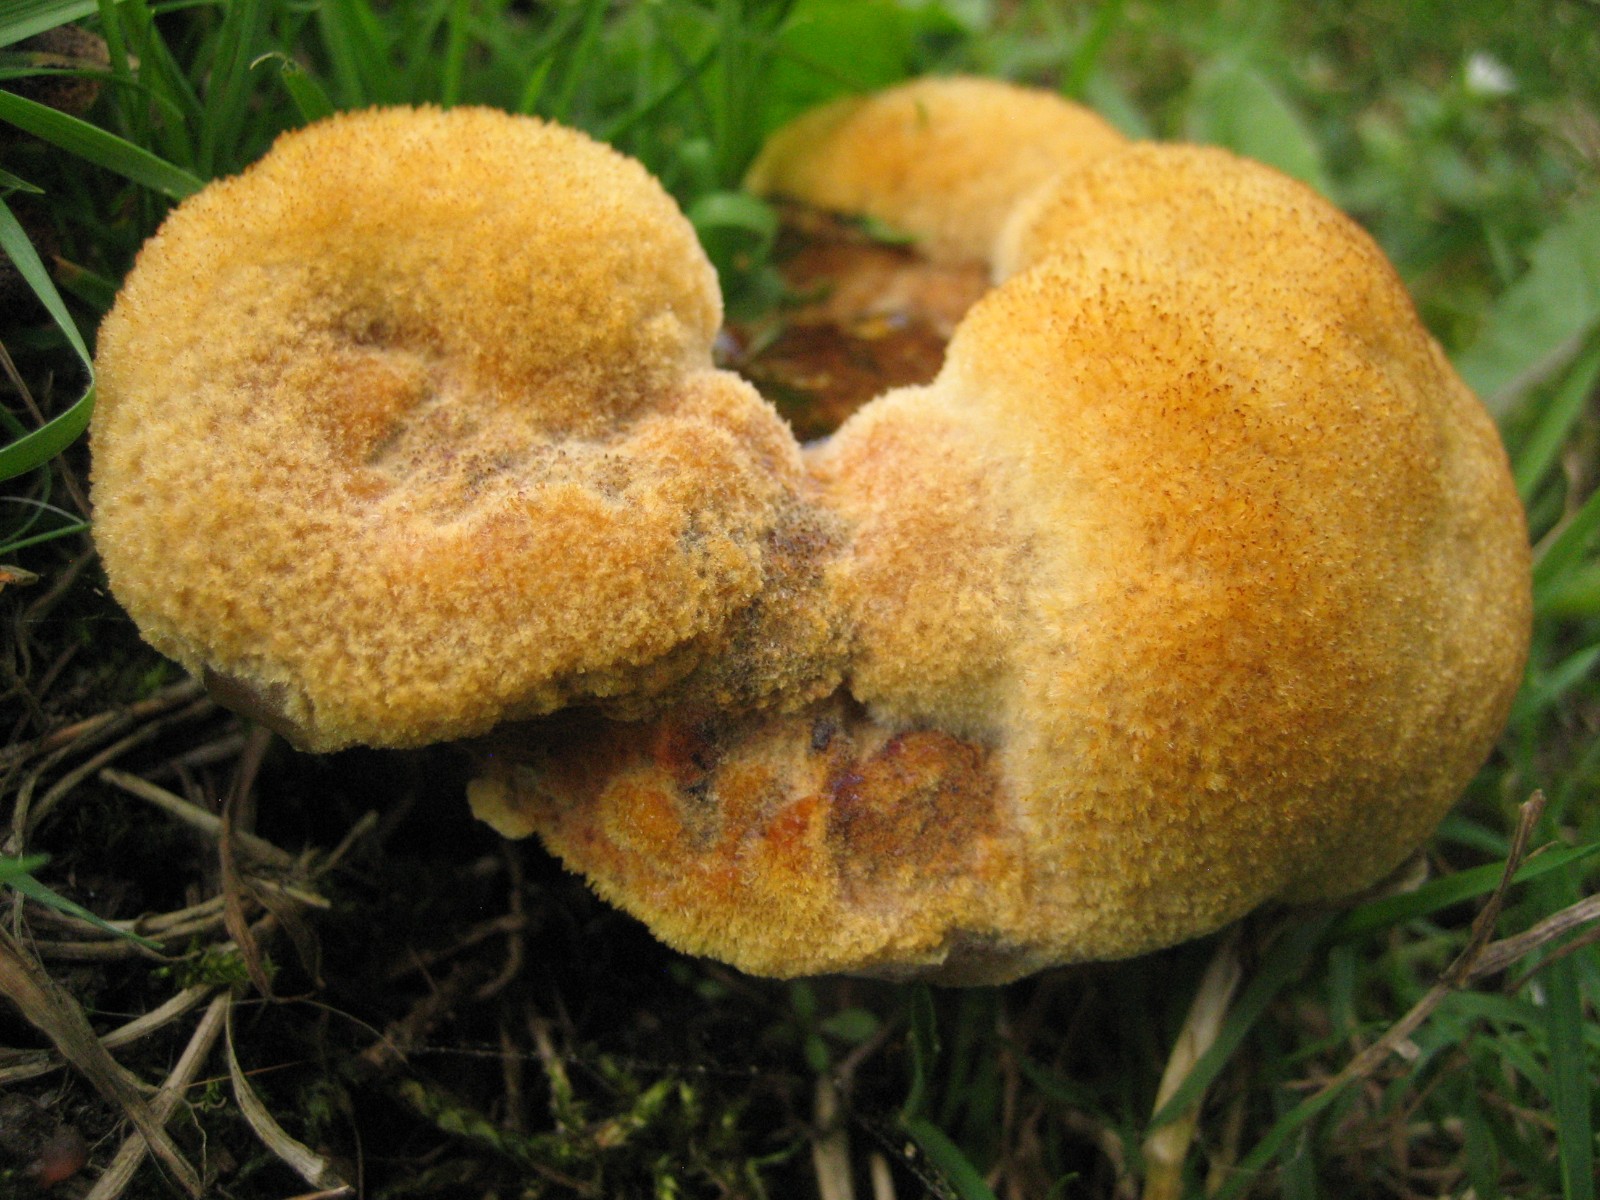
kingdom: Fungi
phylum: Basidiomycota
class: Agaricomycetes
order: Polyporales
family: Laetiporaceae
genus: Phaeolus
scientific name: Phaeolus schweinitzii
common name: brunporesvamp
